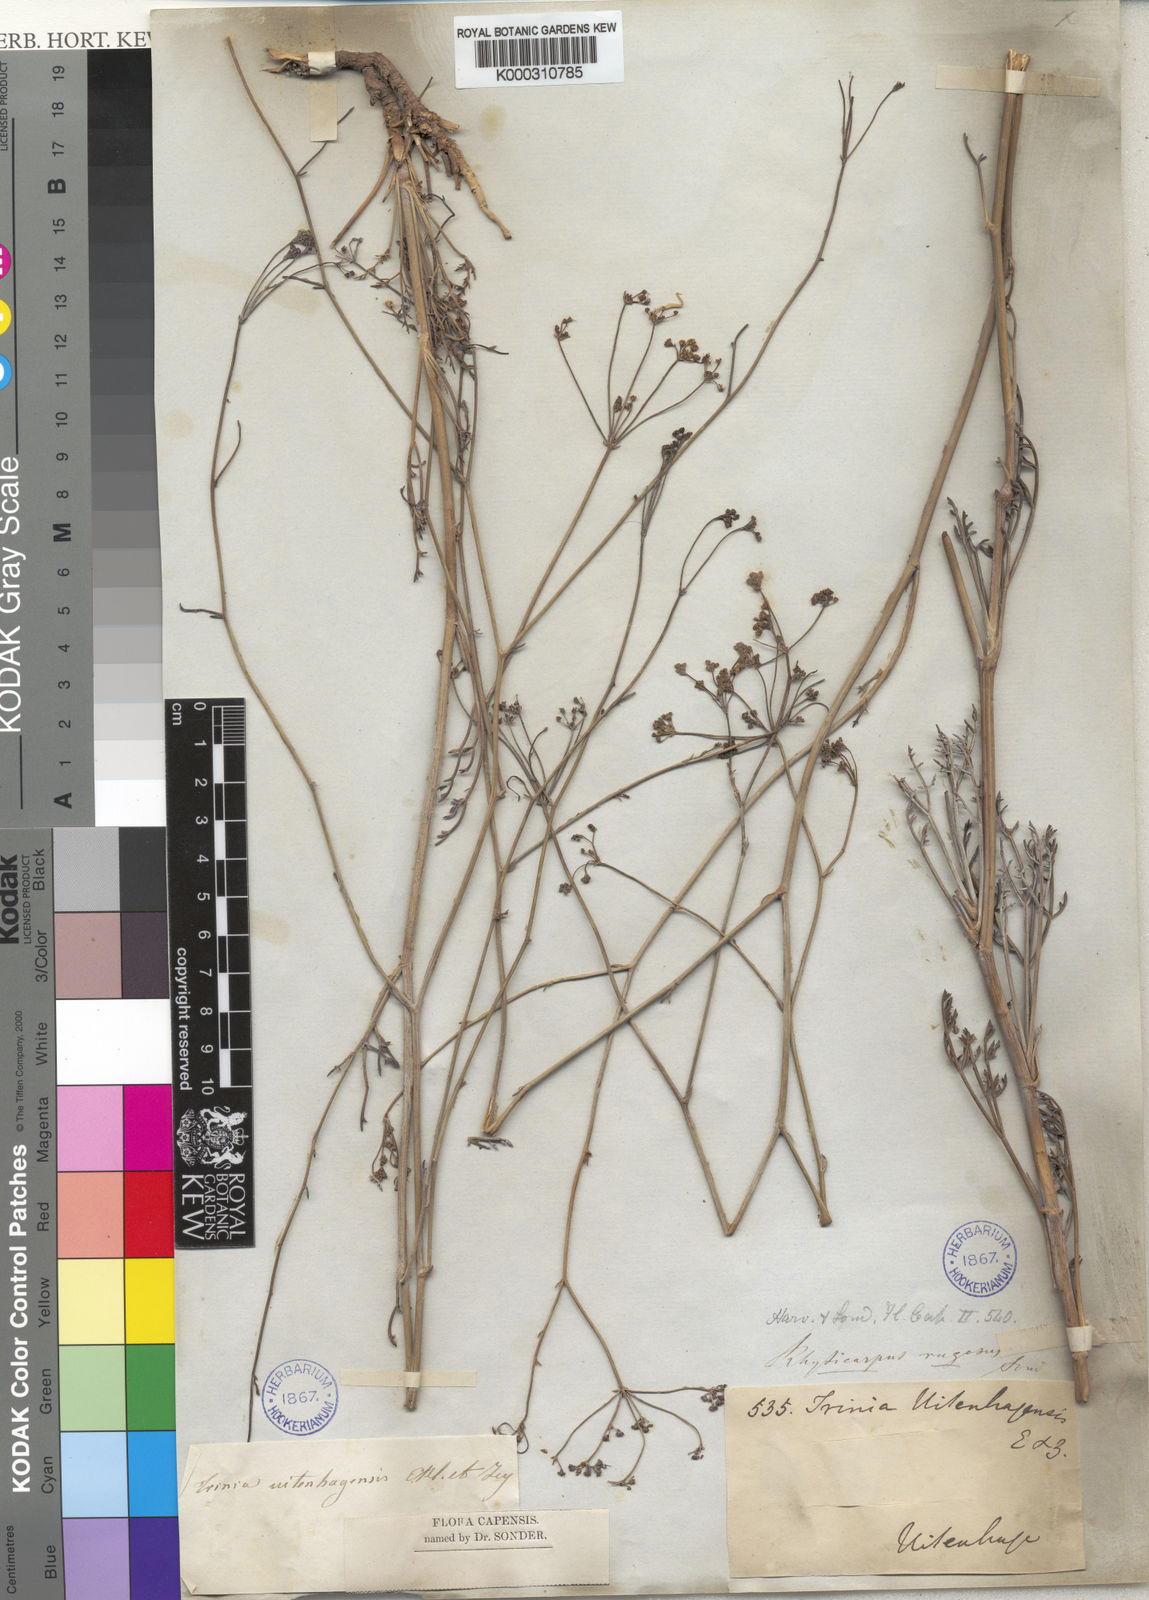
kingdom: Plantae
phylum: Tracheophyta
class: Magnoliopsida
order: Apiales
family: Apiaceae
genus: Anginon
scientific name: Anginon rugosum
